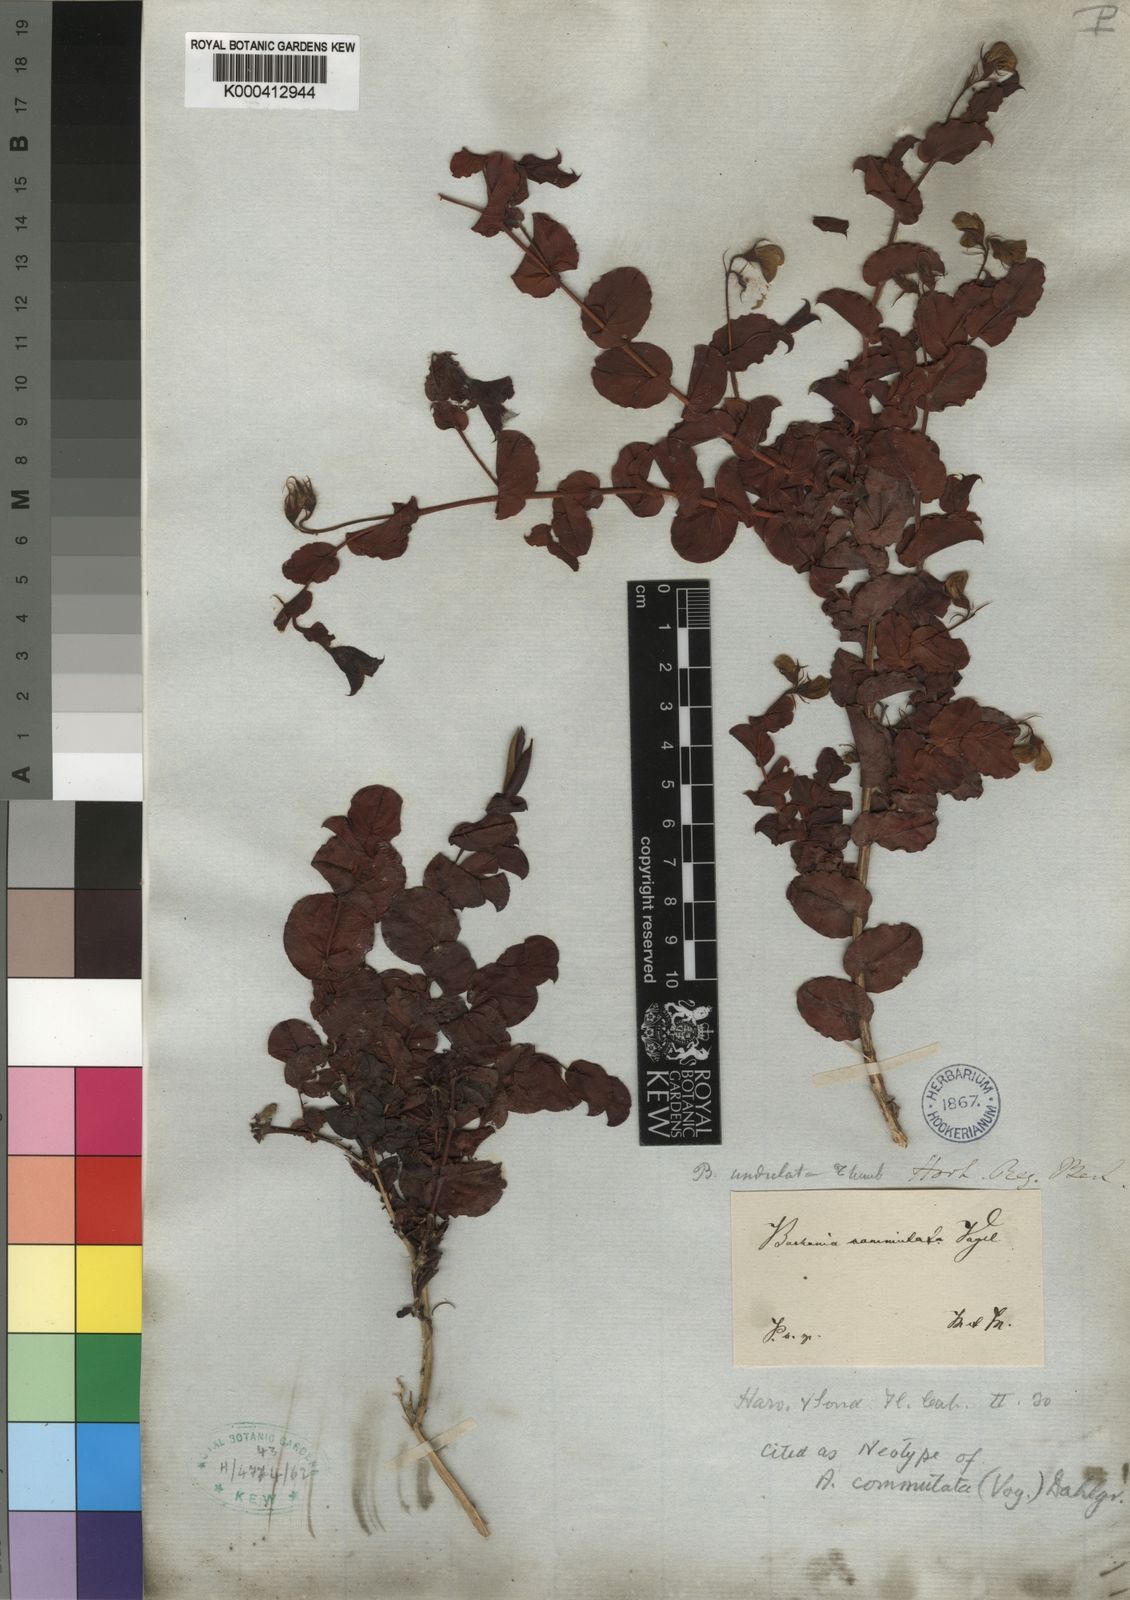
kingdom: Plantae
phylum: Tracheophyta
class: Magnoliopsida
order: Fabales
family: Fabaceae
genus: Aspalathus
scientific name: Aspalathus commutata
